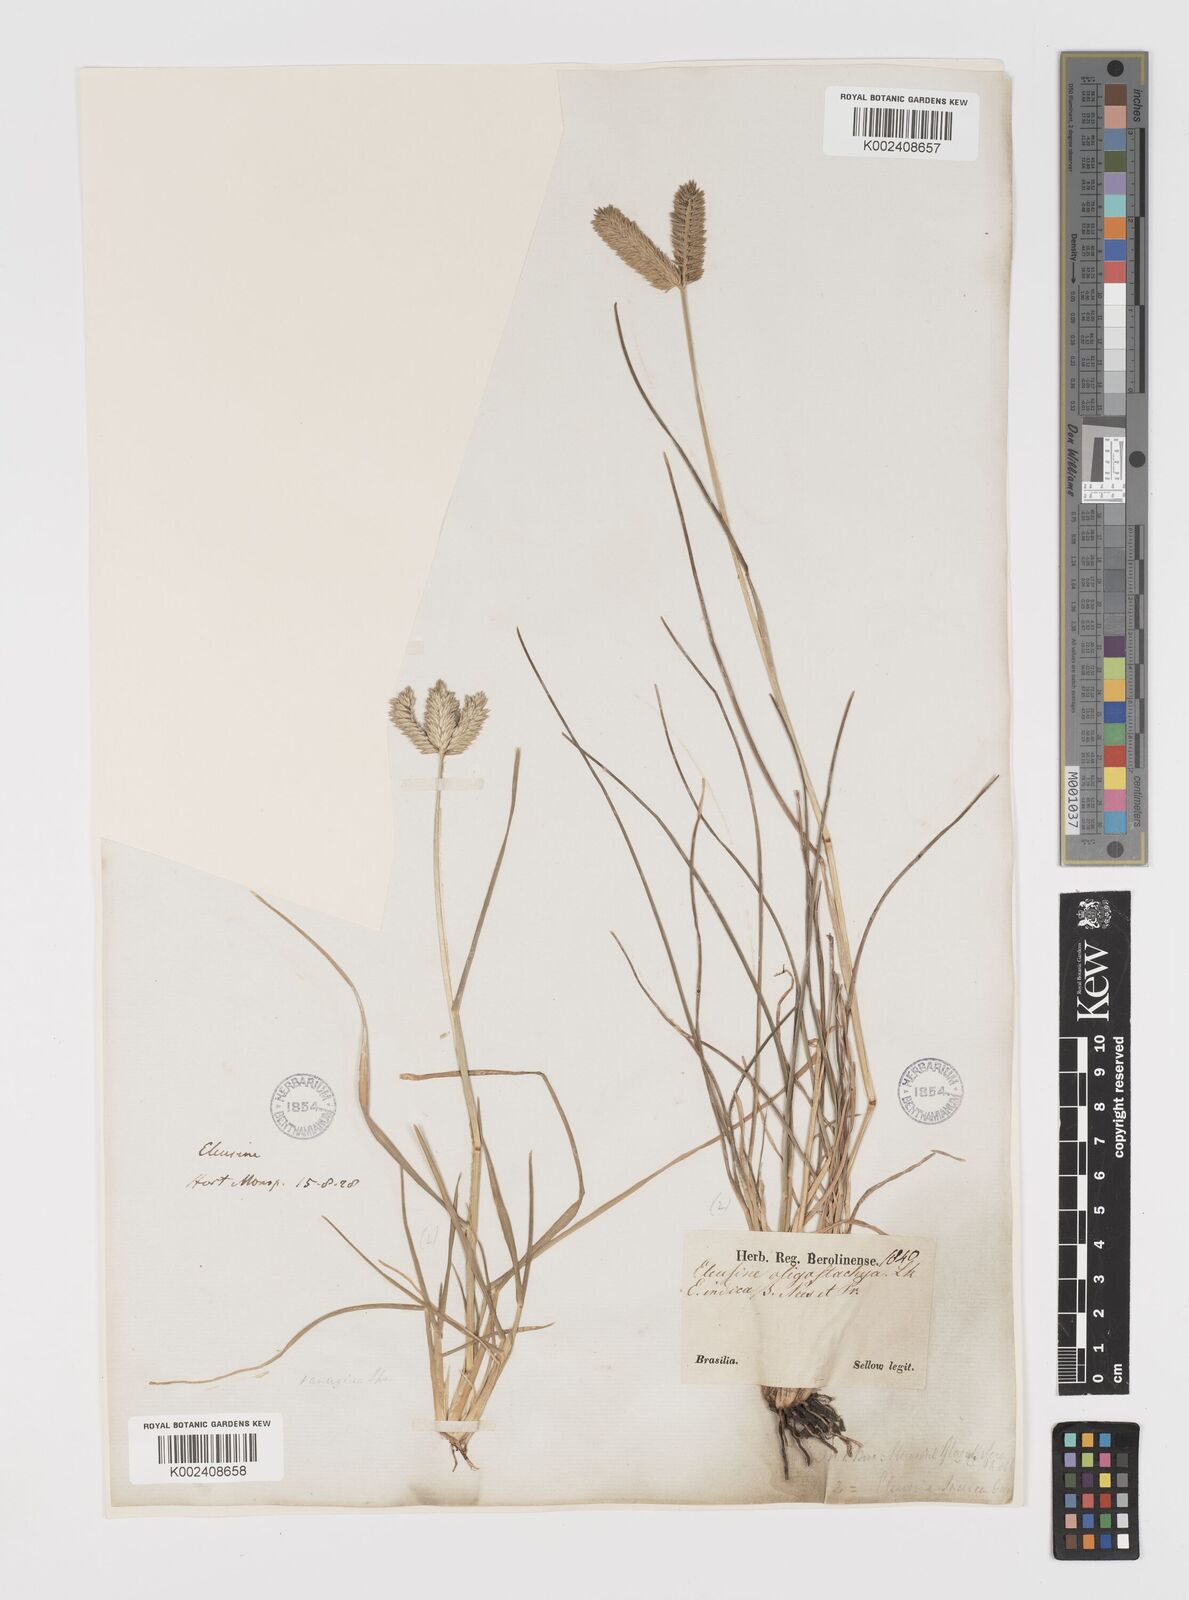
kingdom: Plantae
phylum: Tracheophyta
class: Liliopsida
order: Poales
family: Poaceae
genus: Eleusine
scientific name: Eleusine tristachya
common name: American yard-grass
